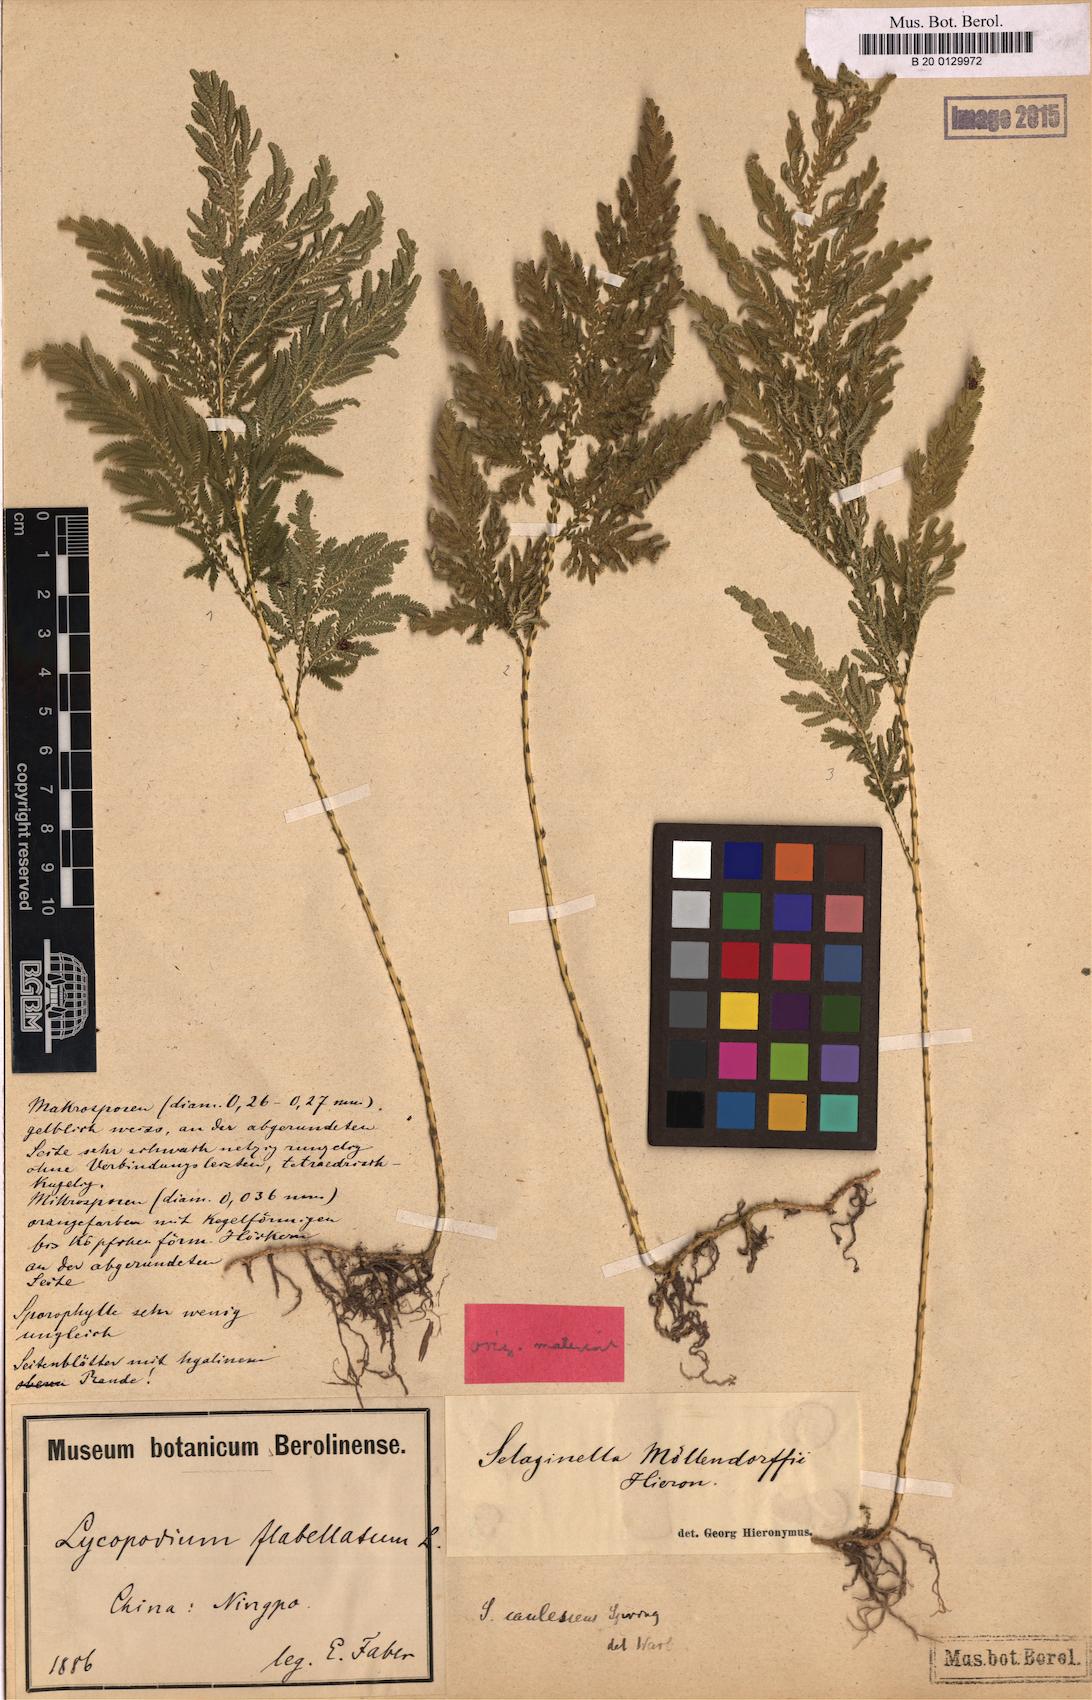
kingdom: Plantae
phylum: Tracheophyta
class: Lycopodiopsida
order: Selaginellales
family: Selaginellaceae
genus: Selaginella
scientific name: Selaginella moellendorffii
